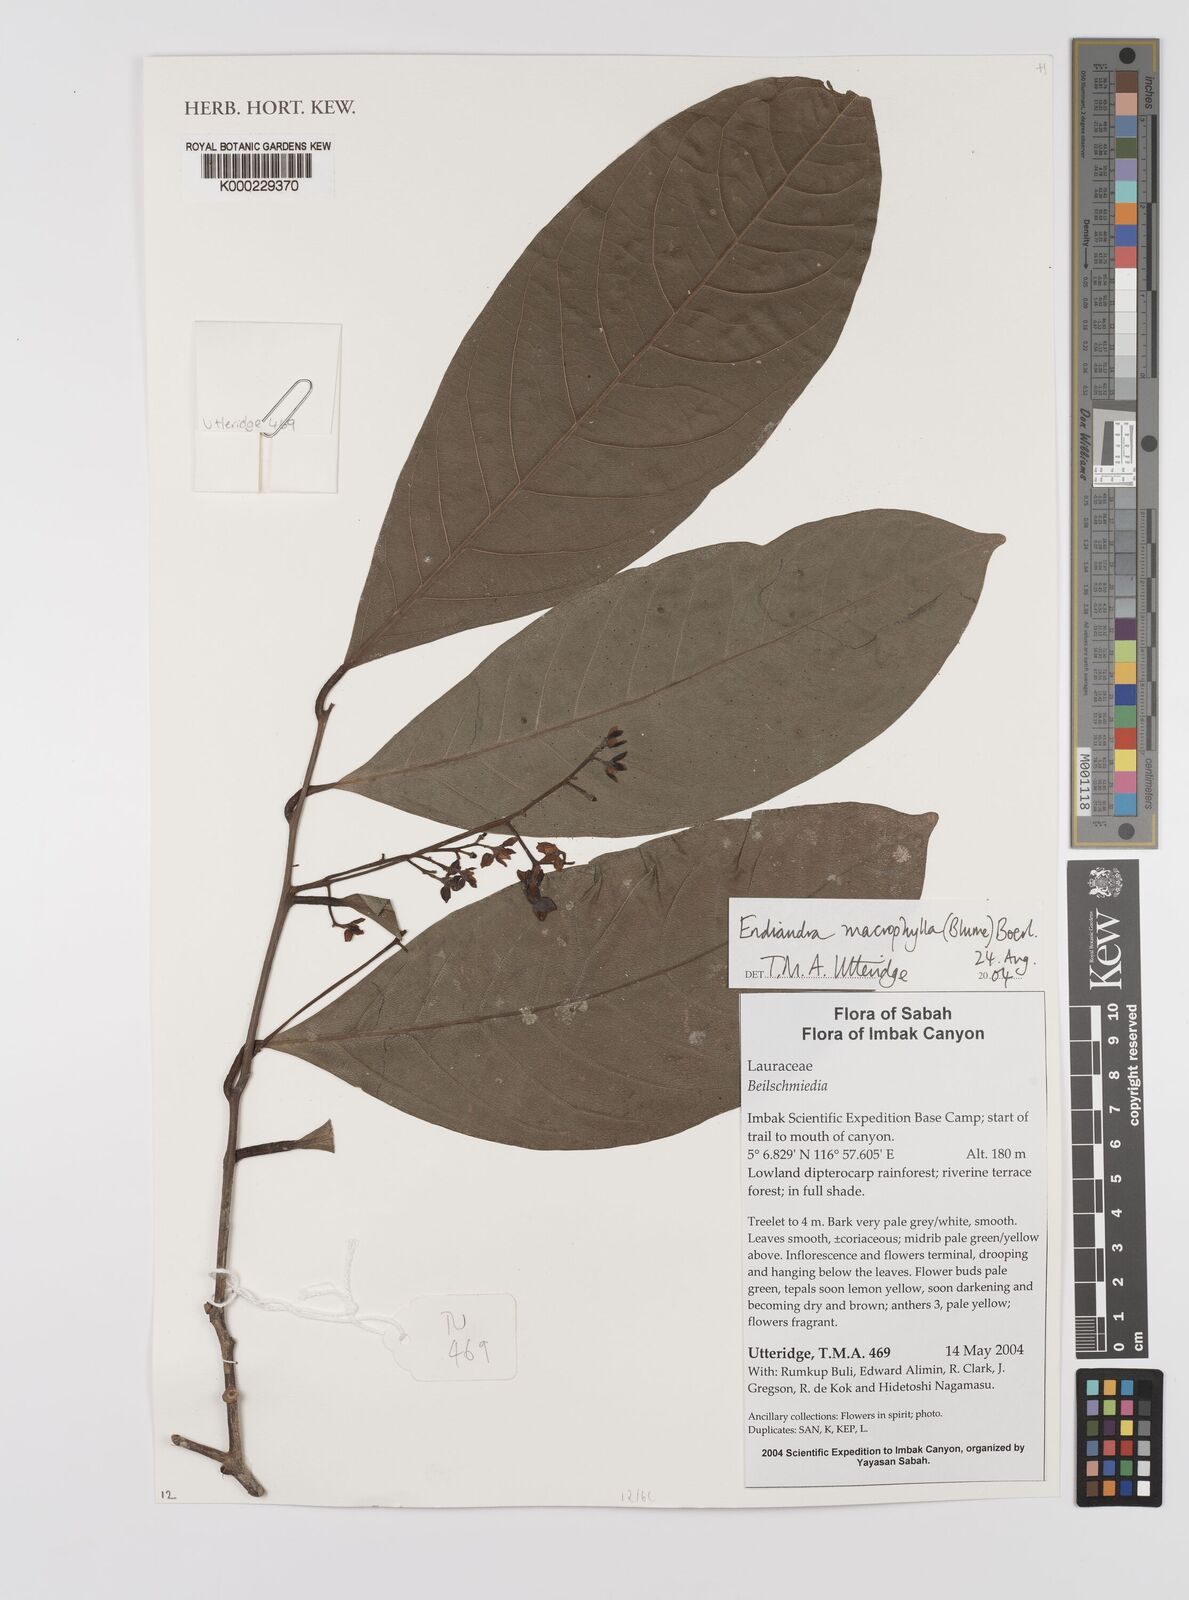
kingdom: Plantae
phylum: Tracheophyta
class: Magnoliopsida
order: Laurales
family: Lauraceae
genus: Endiandra
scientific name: Endiandra macrophylla
